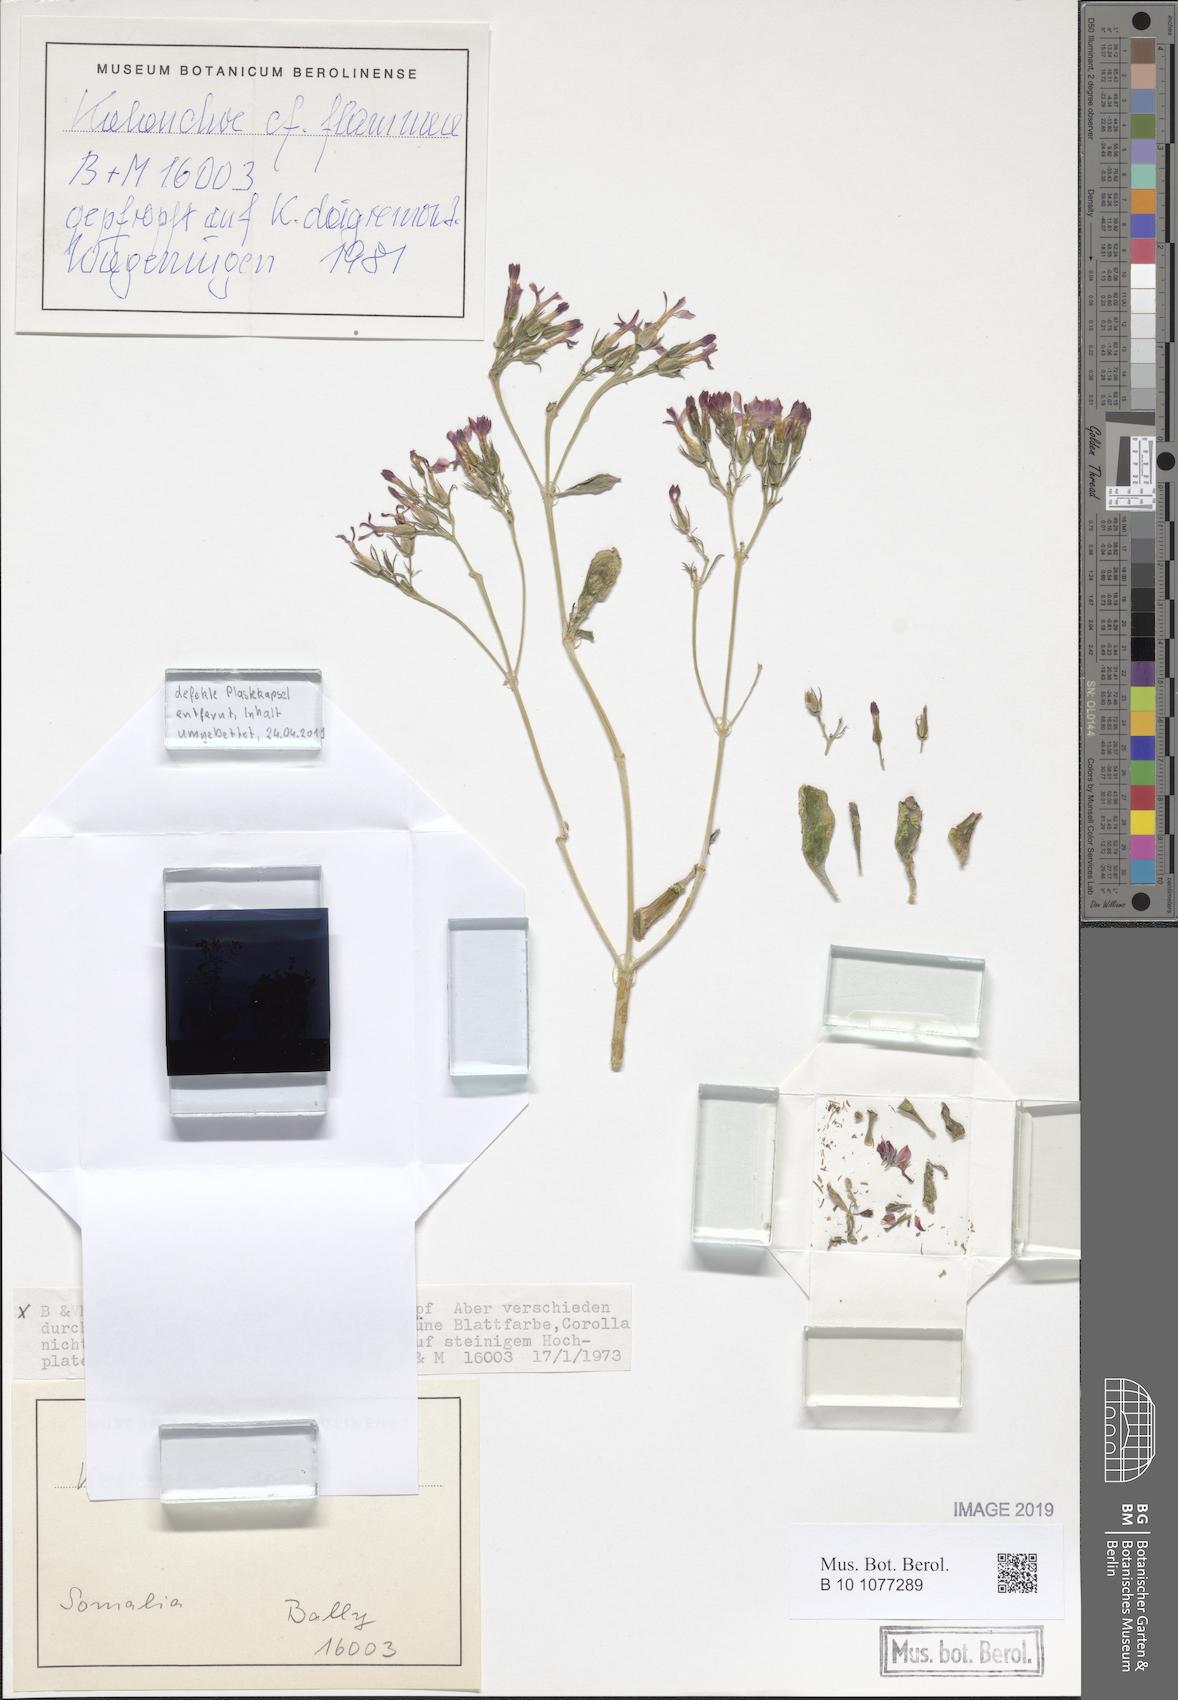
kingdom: Plantae
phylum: Tracheophyta
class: Magnoliopsida
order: Saxifragales
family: Crassulaceae
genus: Kalanchoe
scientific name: Kalanchoe
